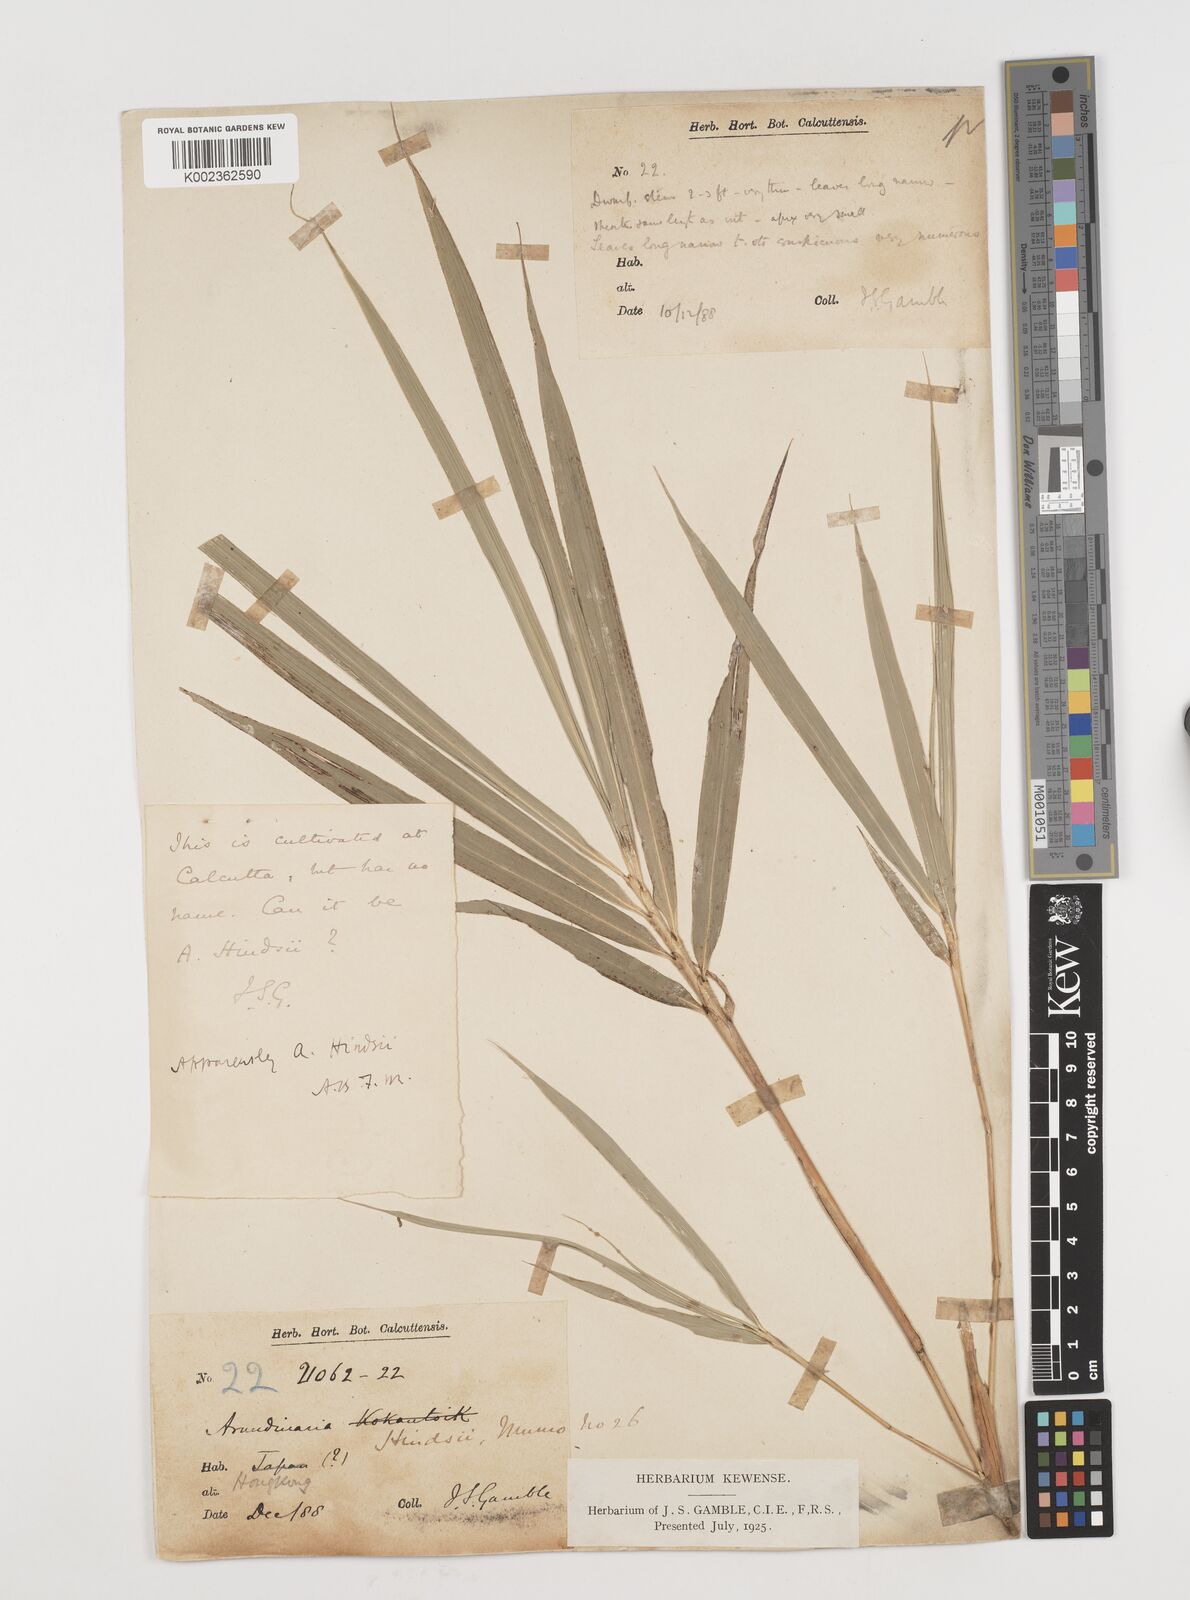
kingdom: Plantae
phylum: Tracheophyta
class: Liliopsida
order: Poales
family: Poaceae
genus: Pseudosasa
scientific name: Pseudosasa hindsii
